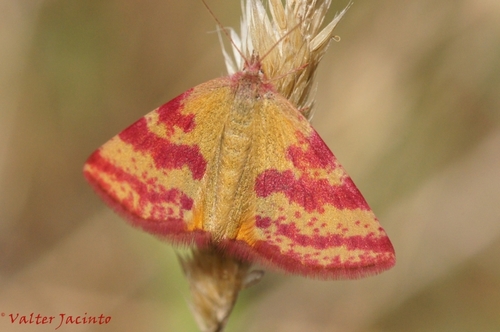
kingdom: Animalia
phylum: Arthropoda
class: Insecta
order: Lepidoptera
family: Geometridae
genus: Lythria
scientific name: Lythria cruentaria
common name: Purple-barred yellow
